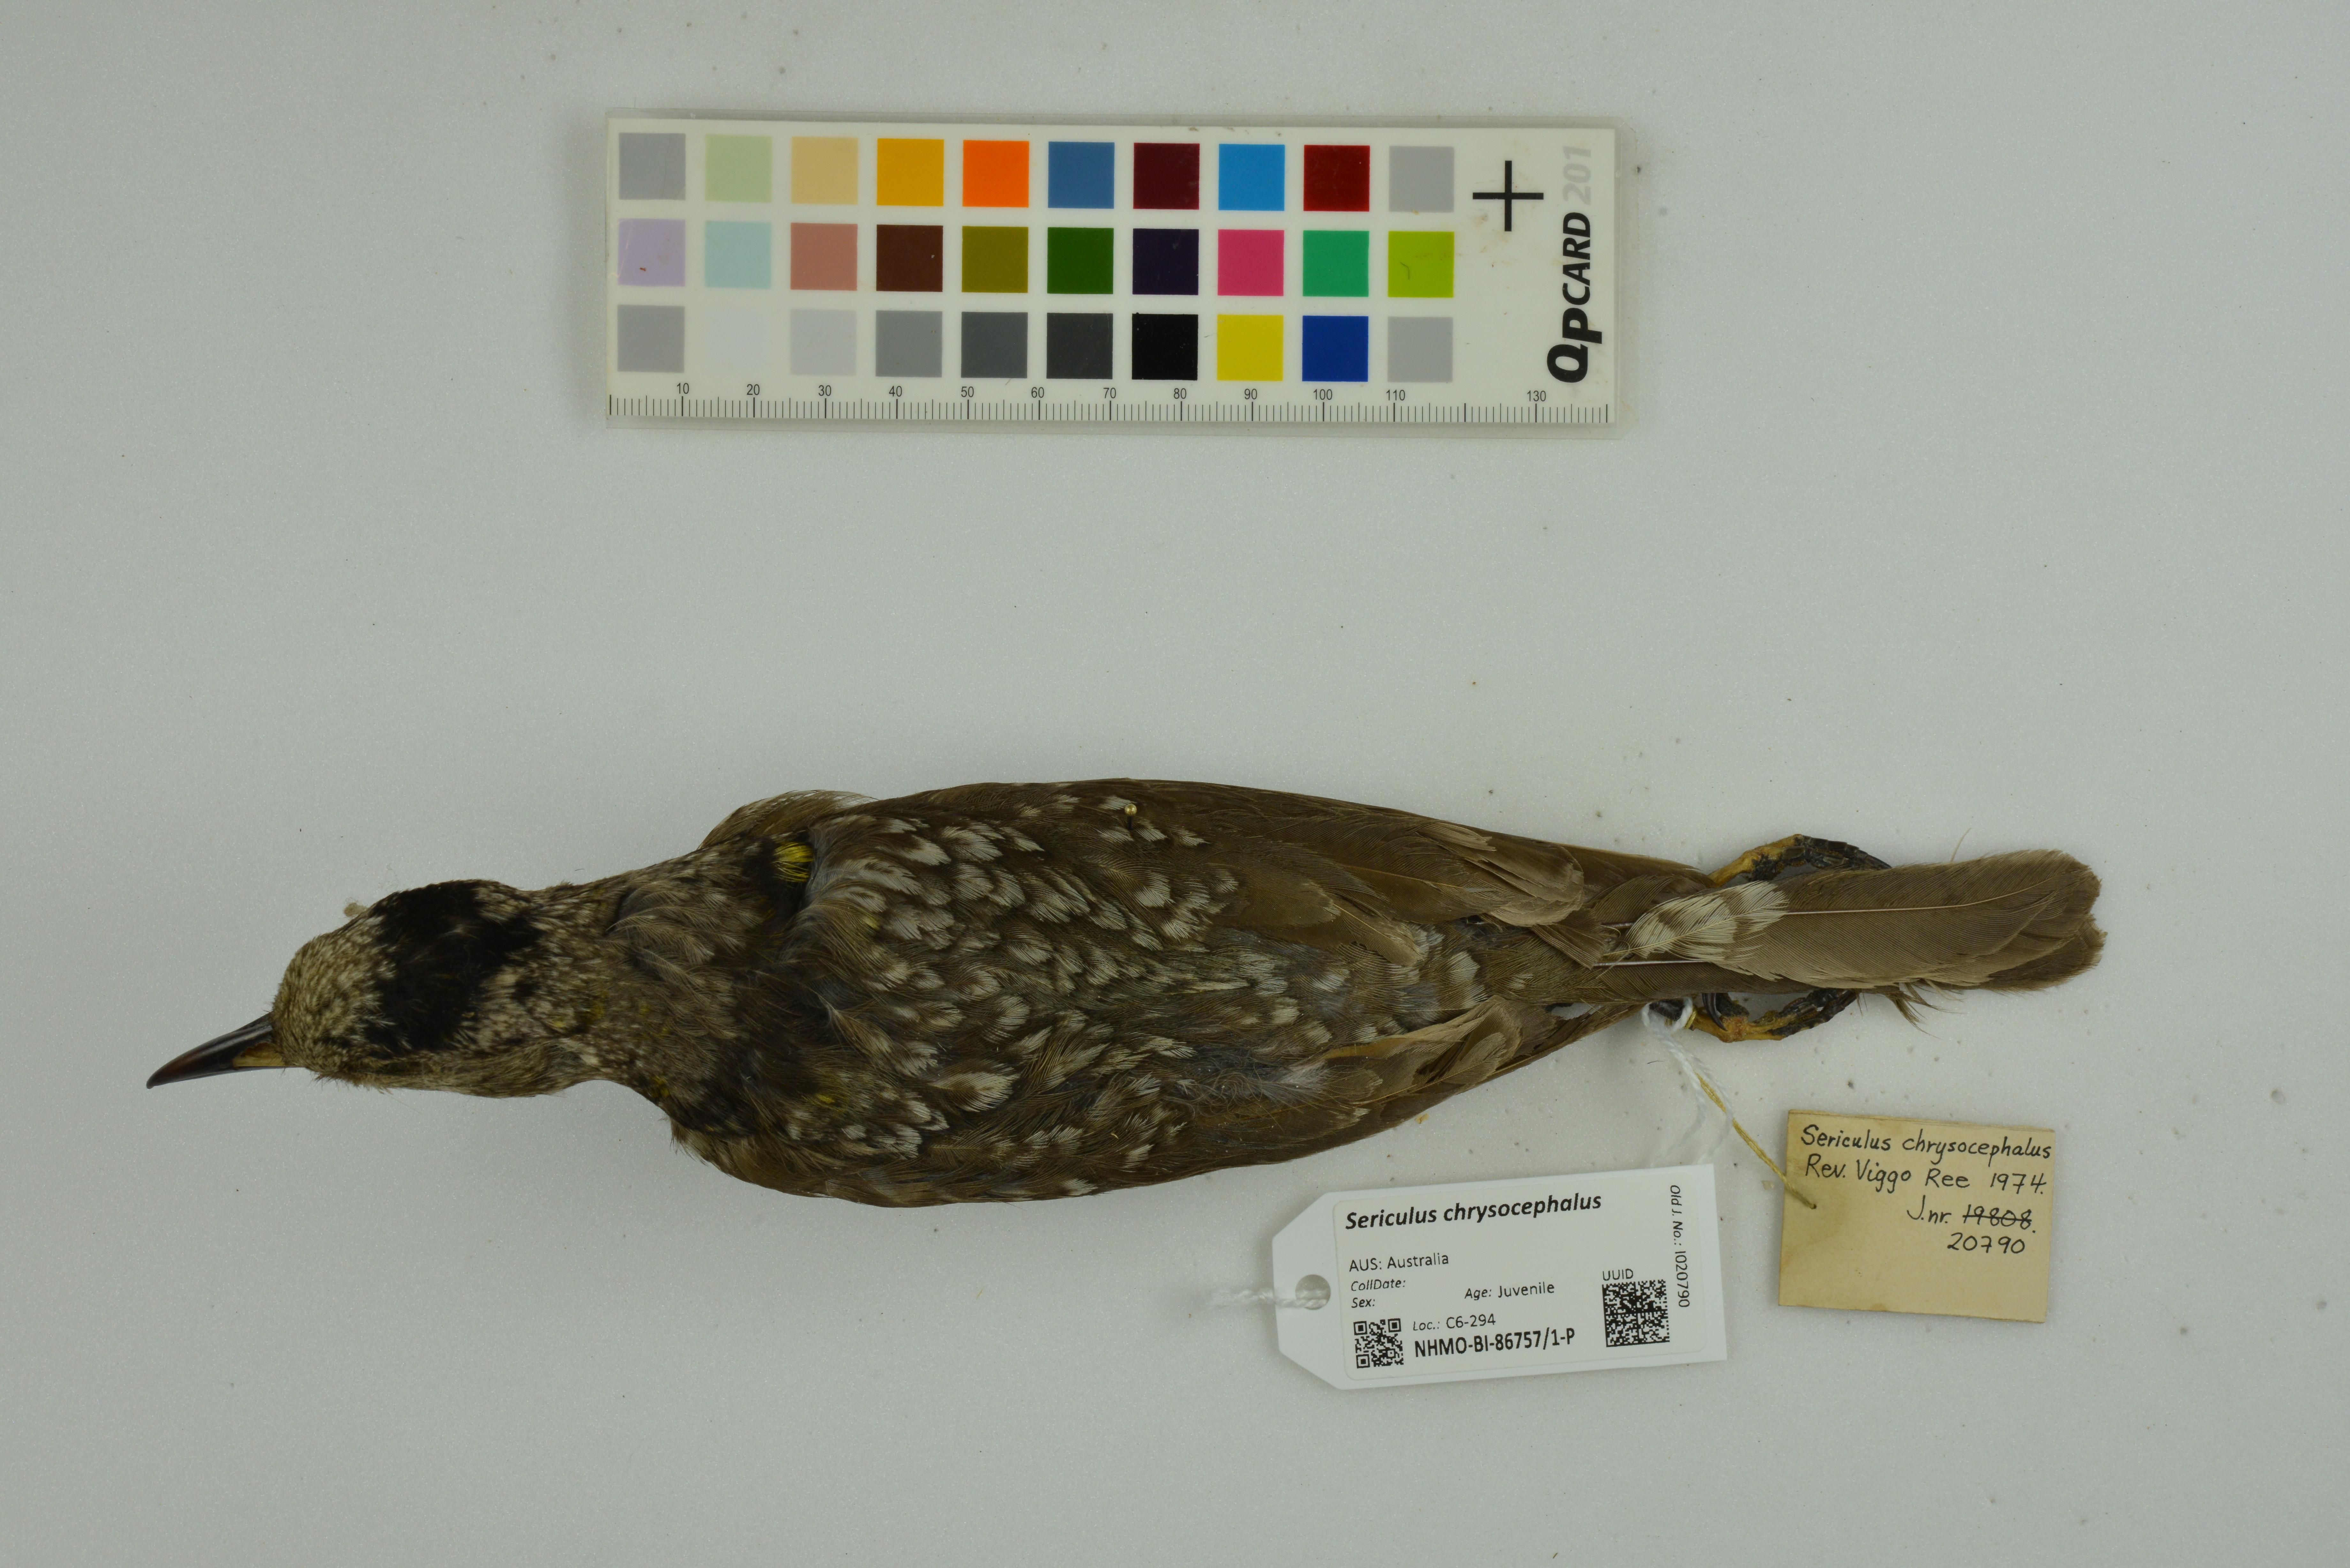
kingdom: Animalia
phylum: Chordata
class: Aves
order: Passeriformes
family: Ptilonorhynchidae
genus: Sericulus
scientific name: Sericulus chrysocephalus
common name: Regent bowerbird
